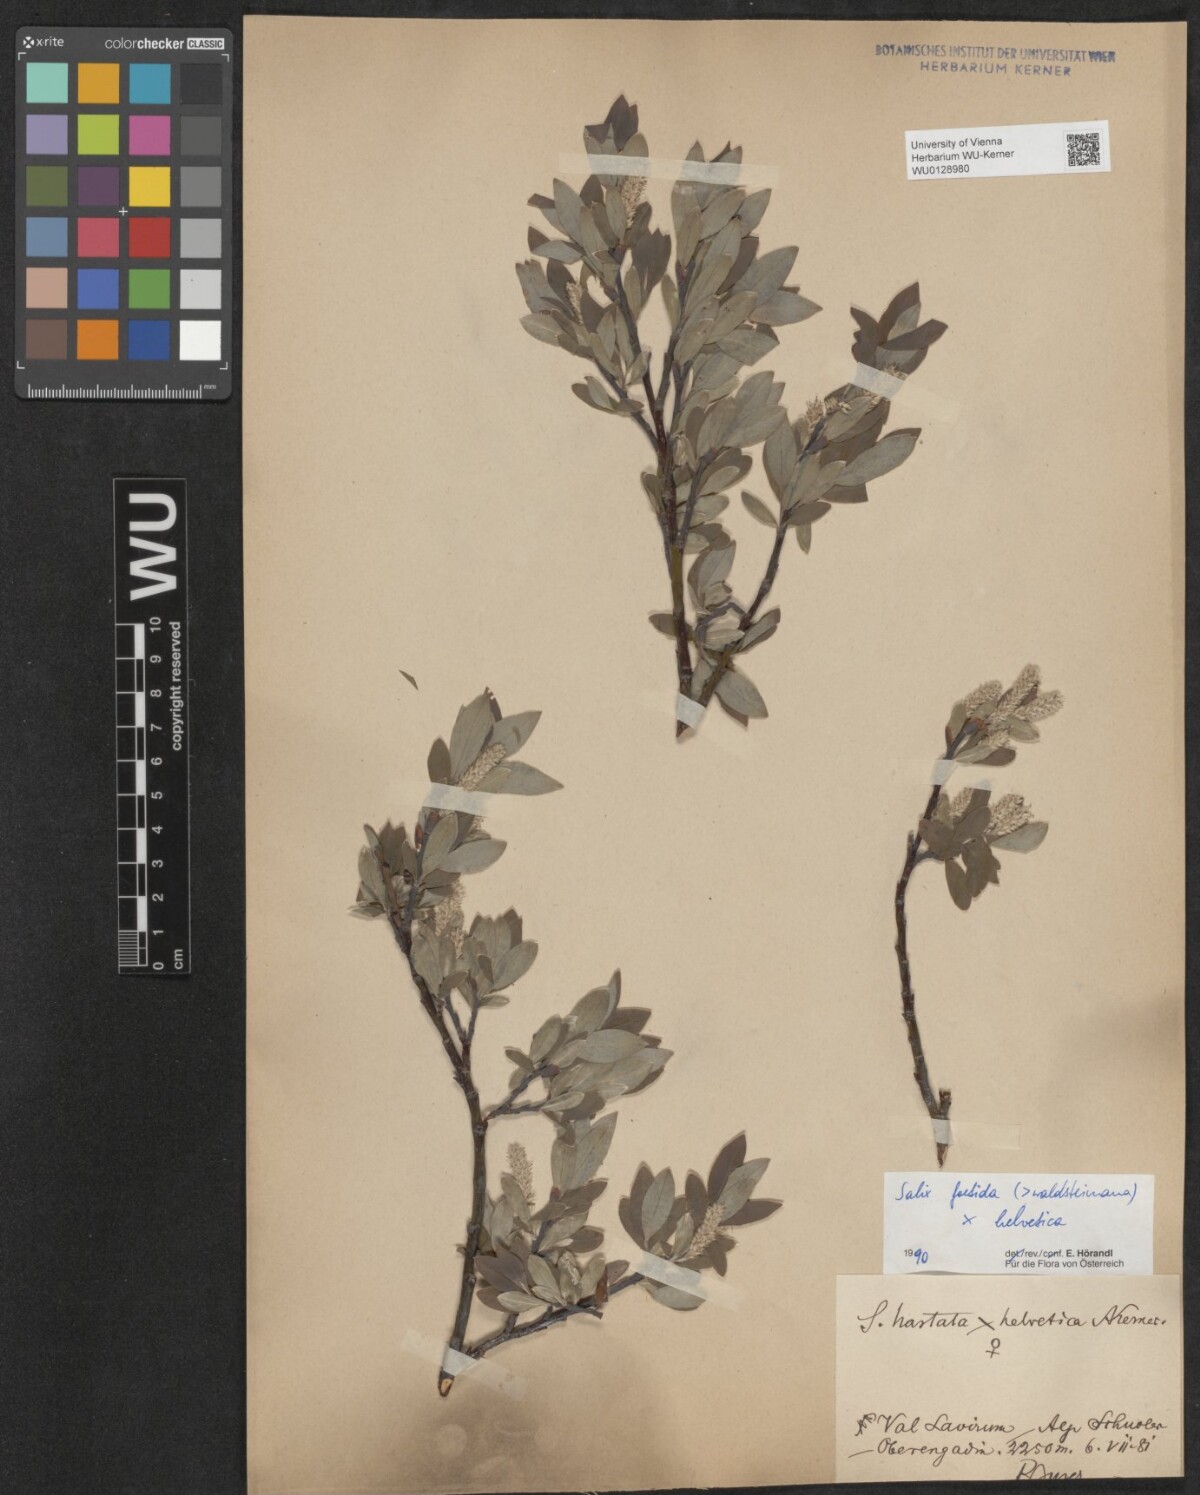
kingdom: Plantae
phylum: Tracheophyta
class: Magnoliopsida
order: Malpighiales
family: Salicaceae
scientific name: Salicaceae
